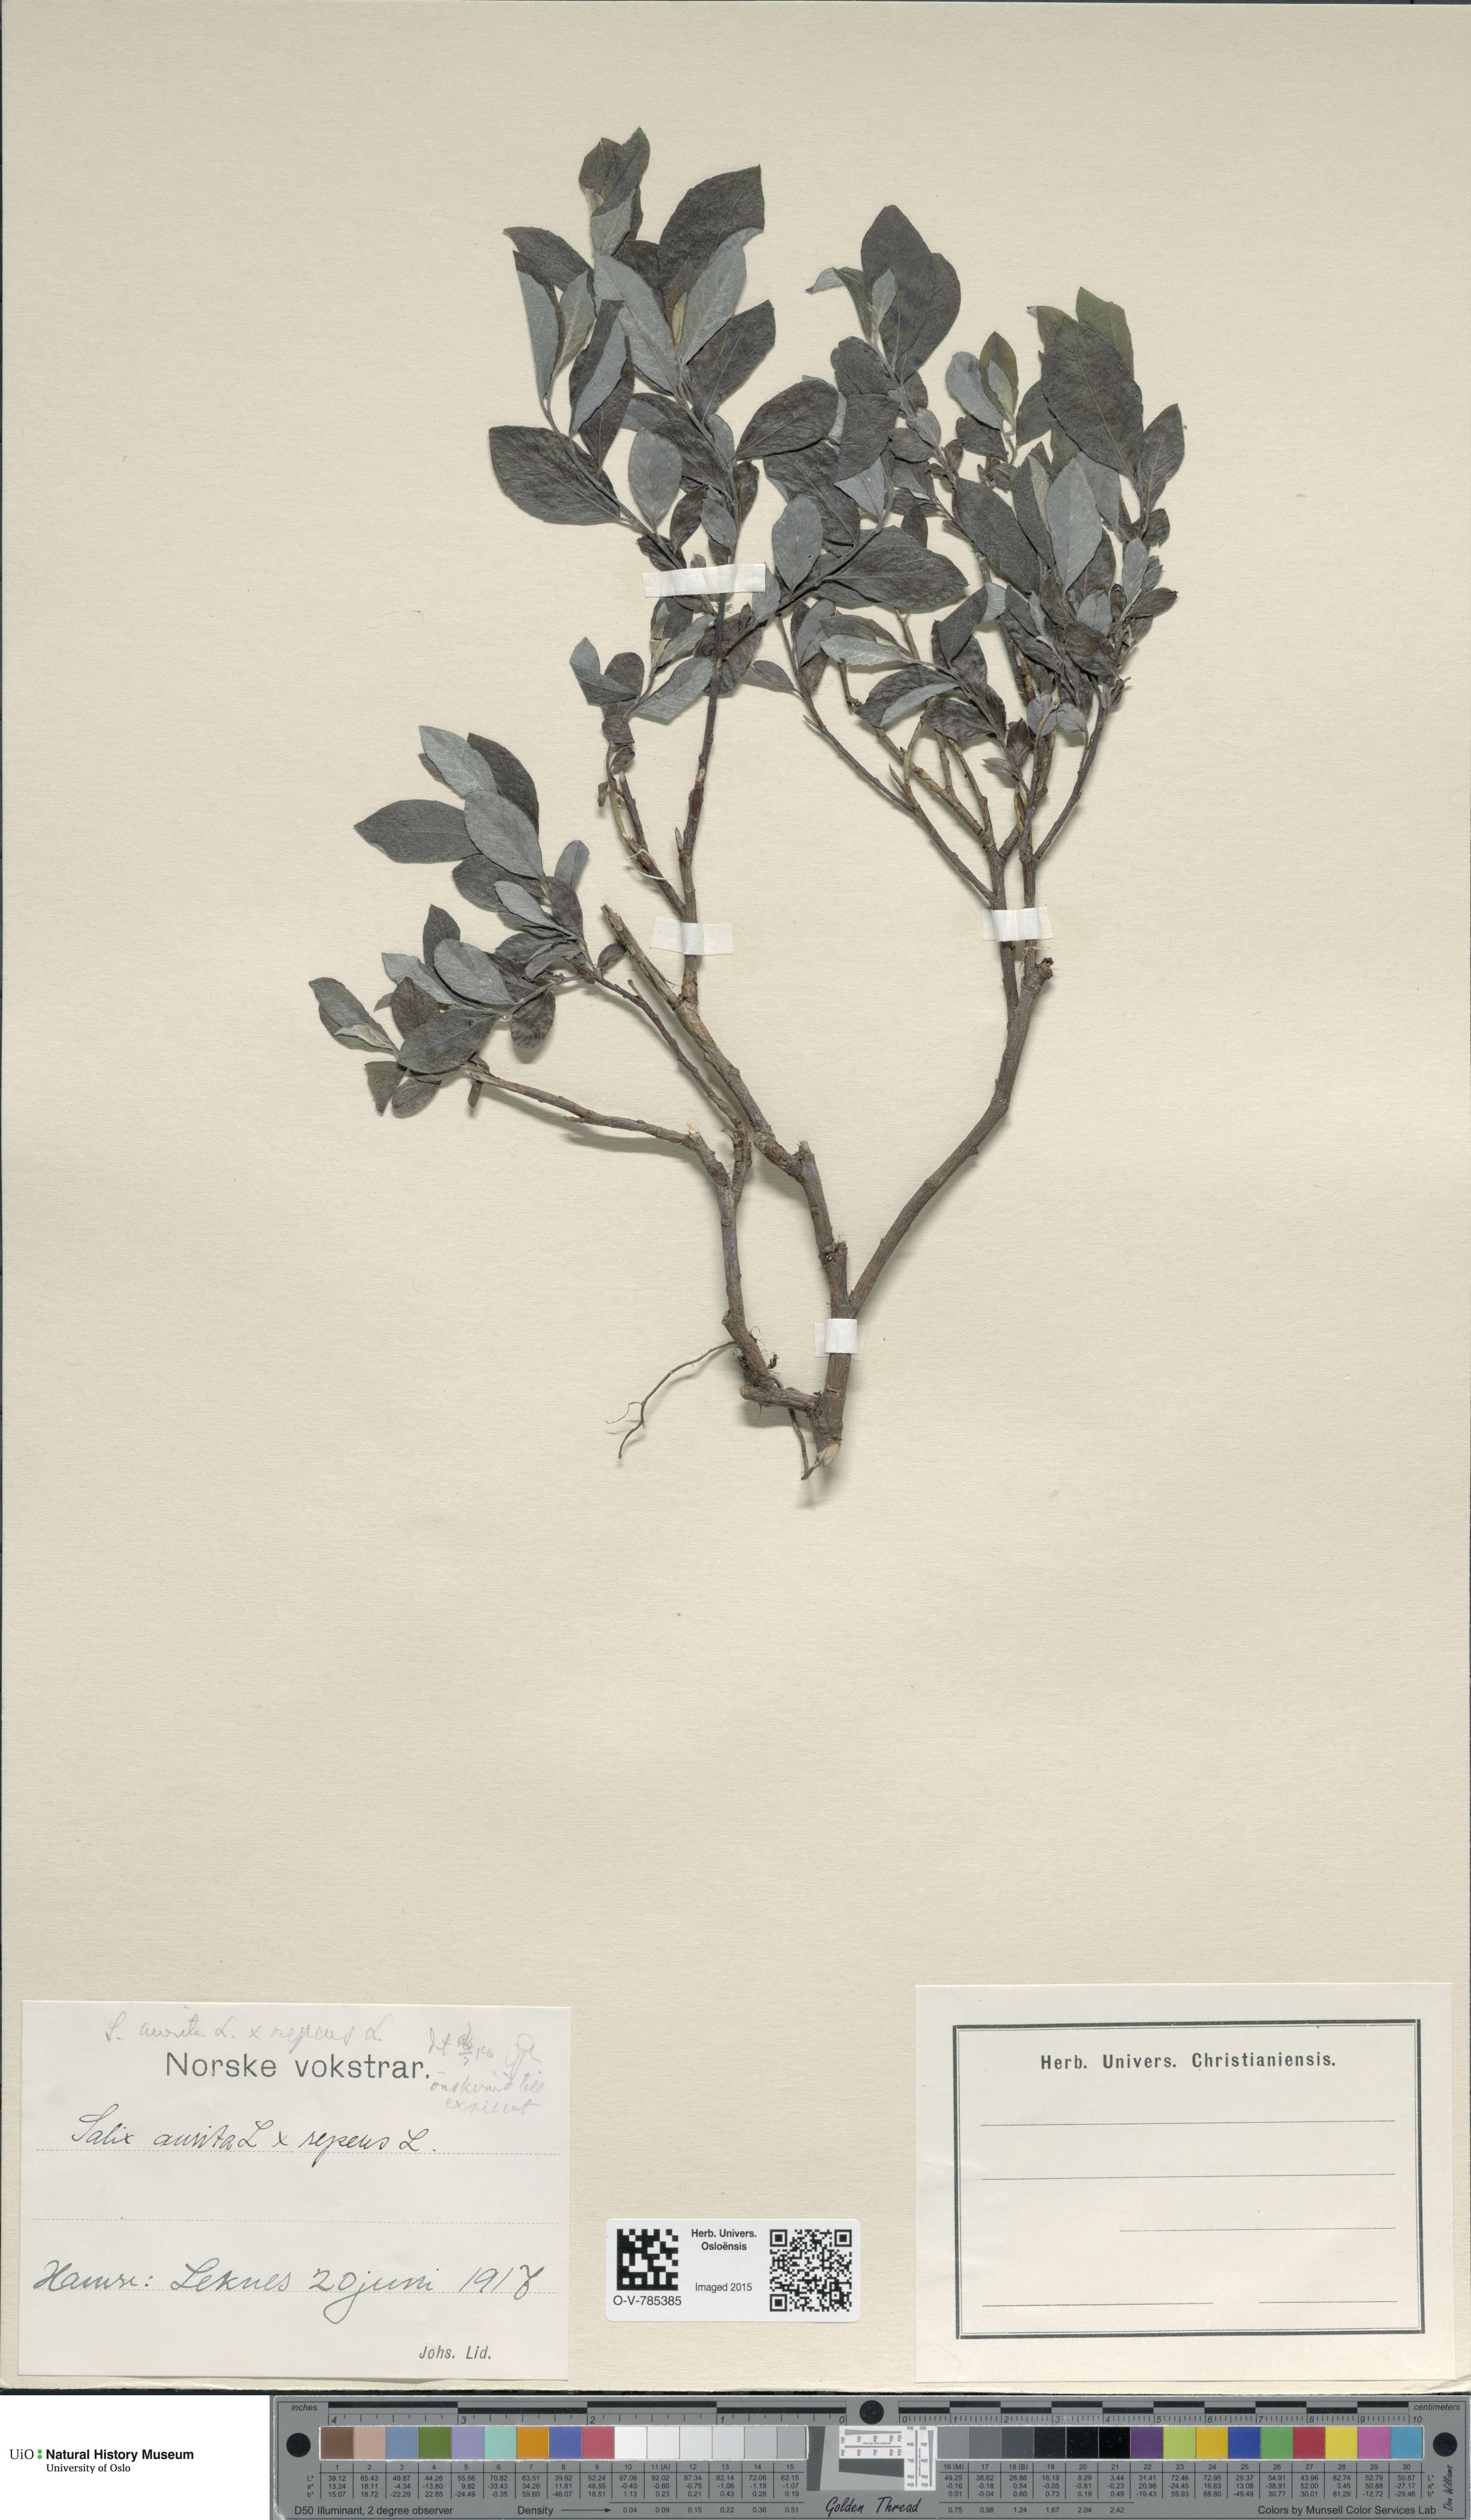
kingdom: Plantae
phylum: Tracheophyta
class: Magnoliopsida
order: Malpighiales
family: Salicaceae
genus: Salix
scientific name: Salix
